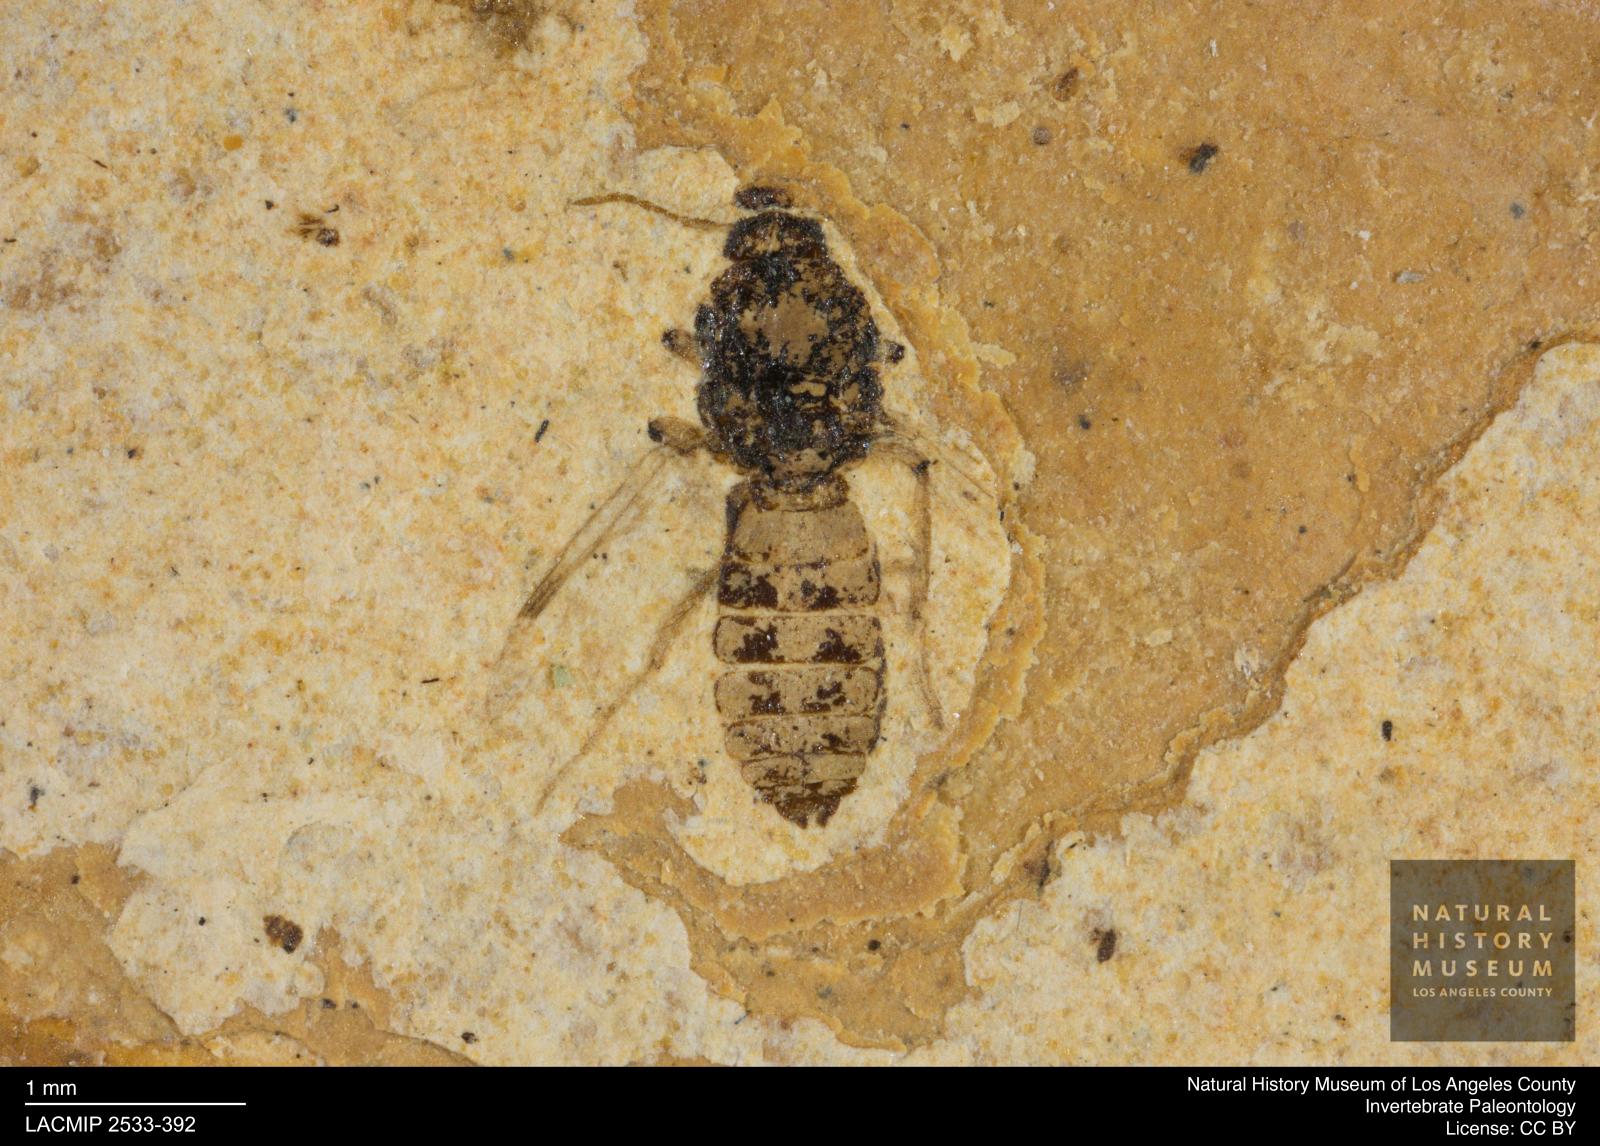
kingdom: Animalia
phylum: Arthropoda
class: Insecta
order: Diptera
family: Ceratopogonidae
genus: Culicoides
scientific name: Culicoides tenuipennis
